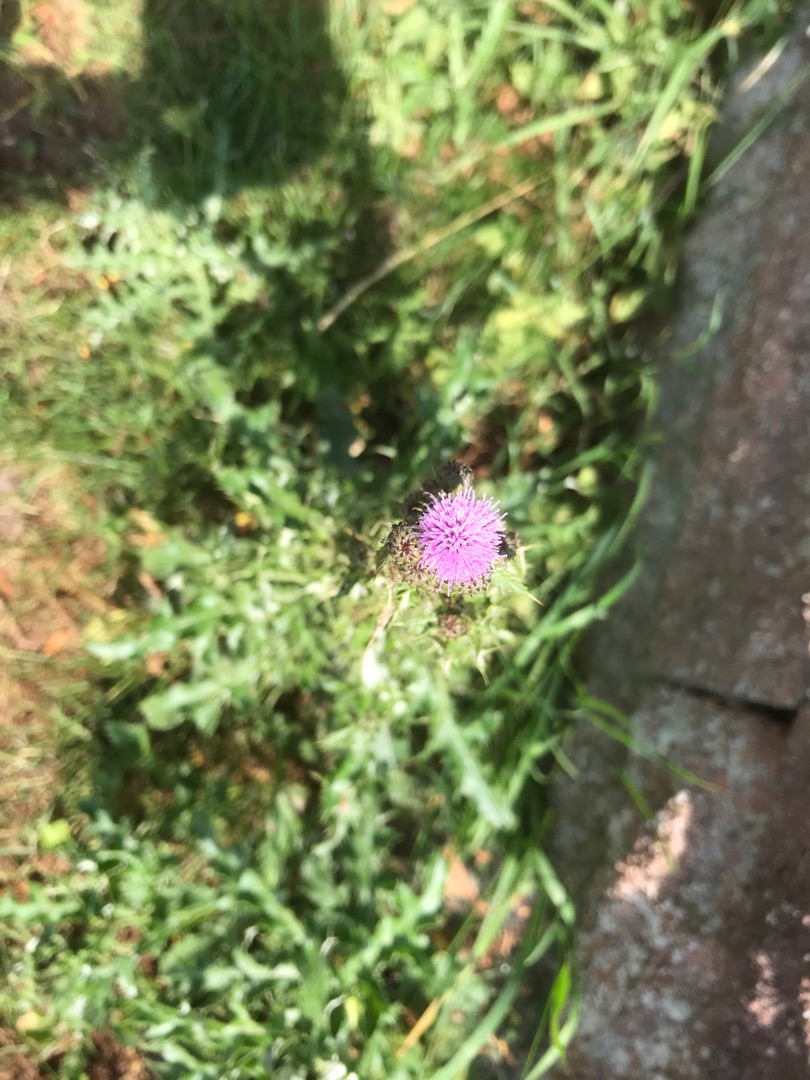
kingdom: Plantae
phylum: Tracheophyta
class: Magnoliopsida
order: Asterales
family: Asteraceae
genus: Cirsium
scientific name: Cirsium arvense
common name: Ager-tidsel
